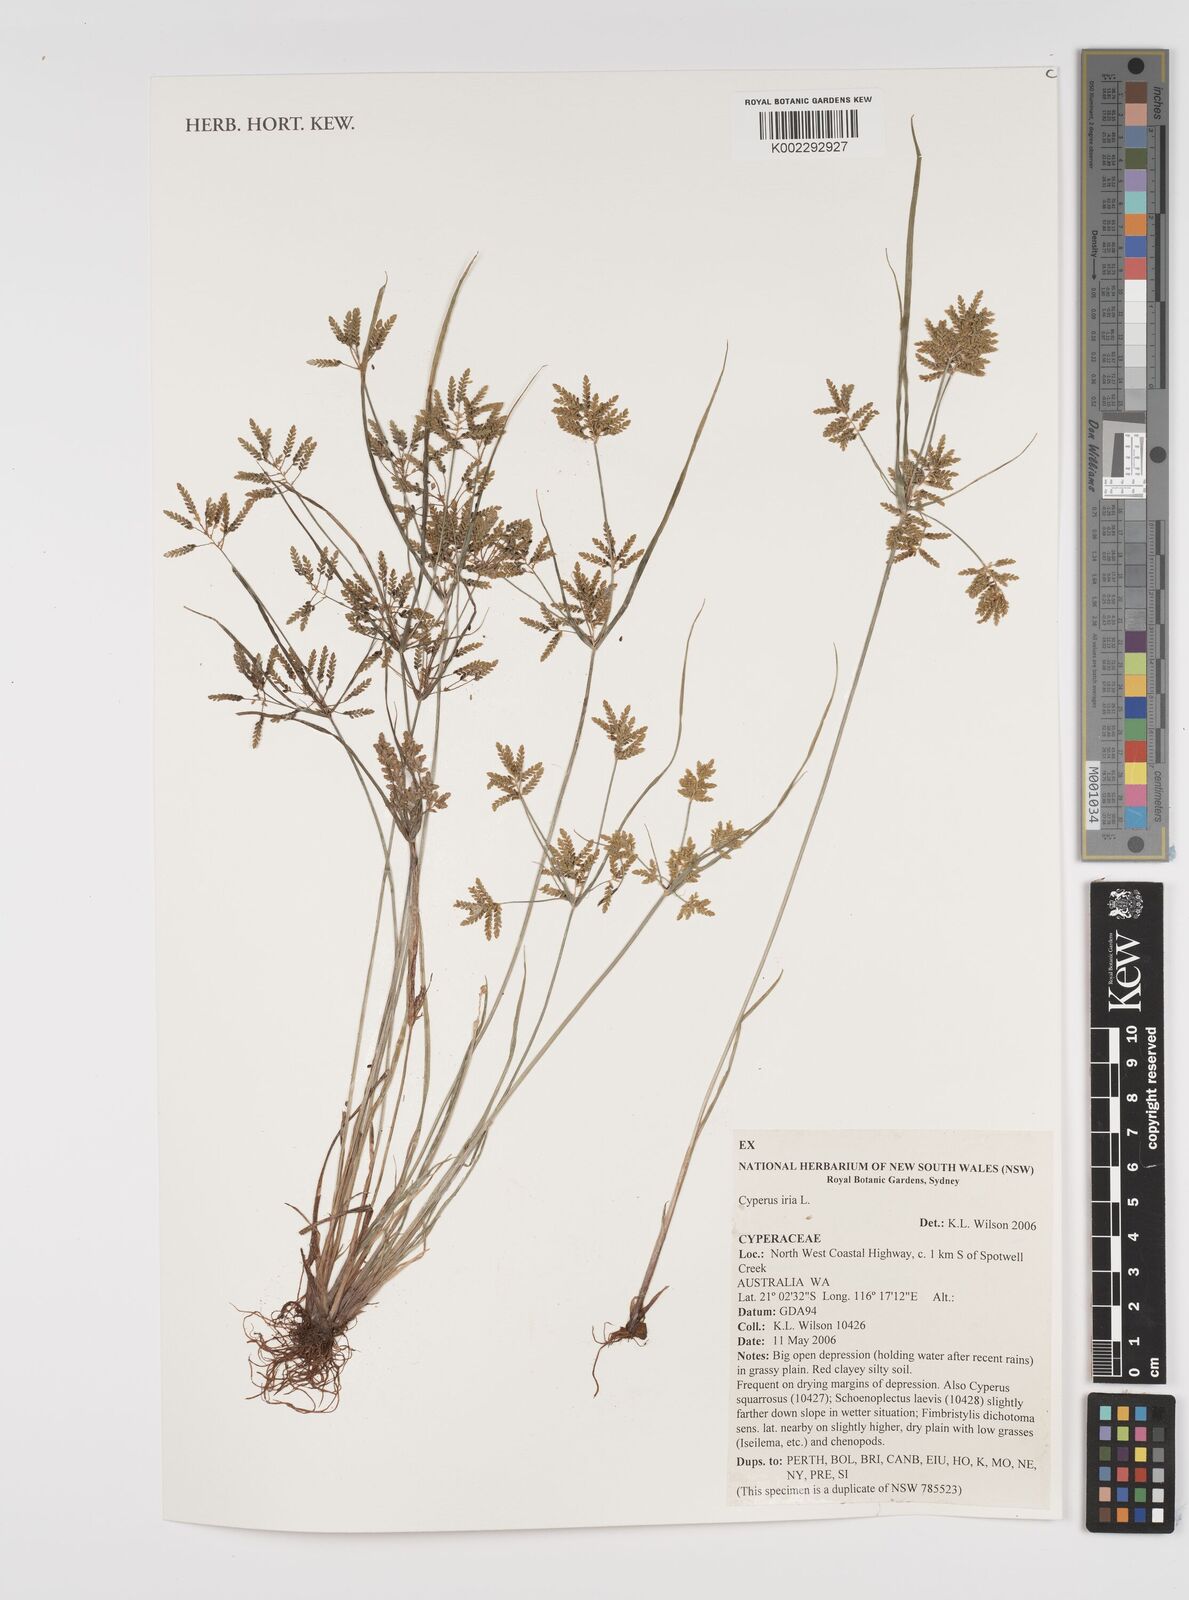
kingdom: Plantae
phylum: Tracheophyta
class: Liliopsida
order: Poales
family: Cyperaceae
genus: Cyperus
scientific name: Cyperus iria
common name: Ricefield flatsedge
